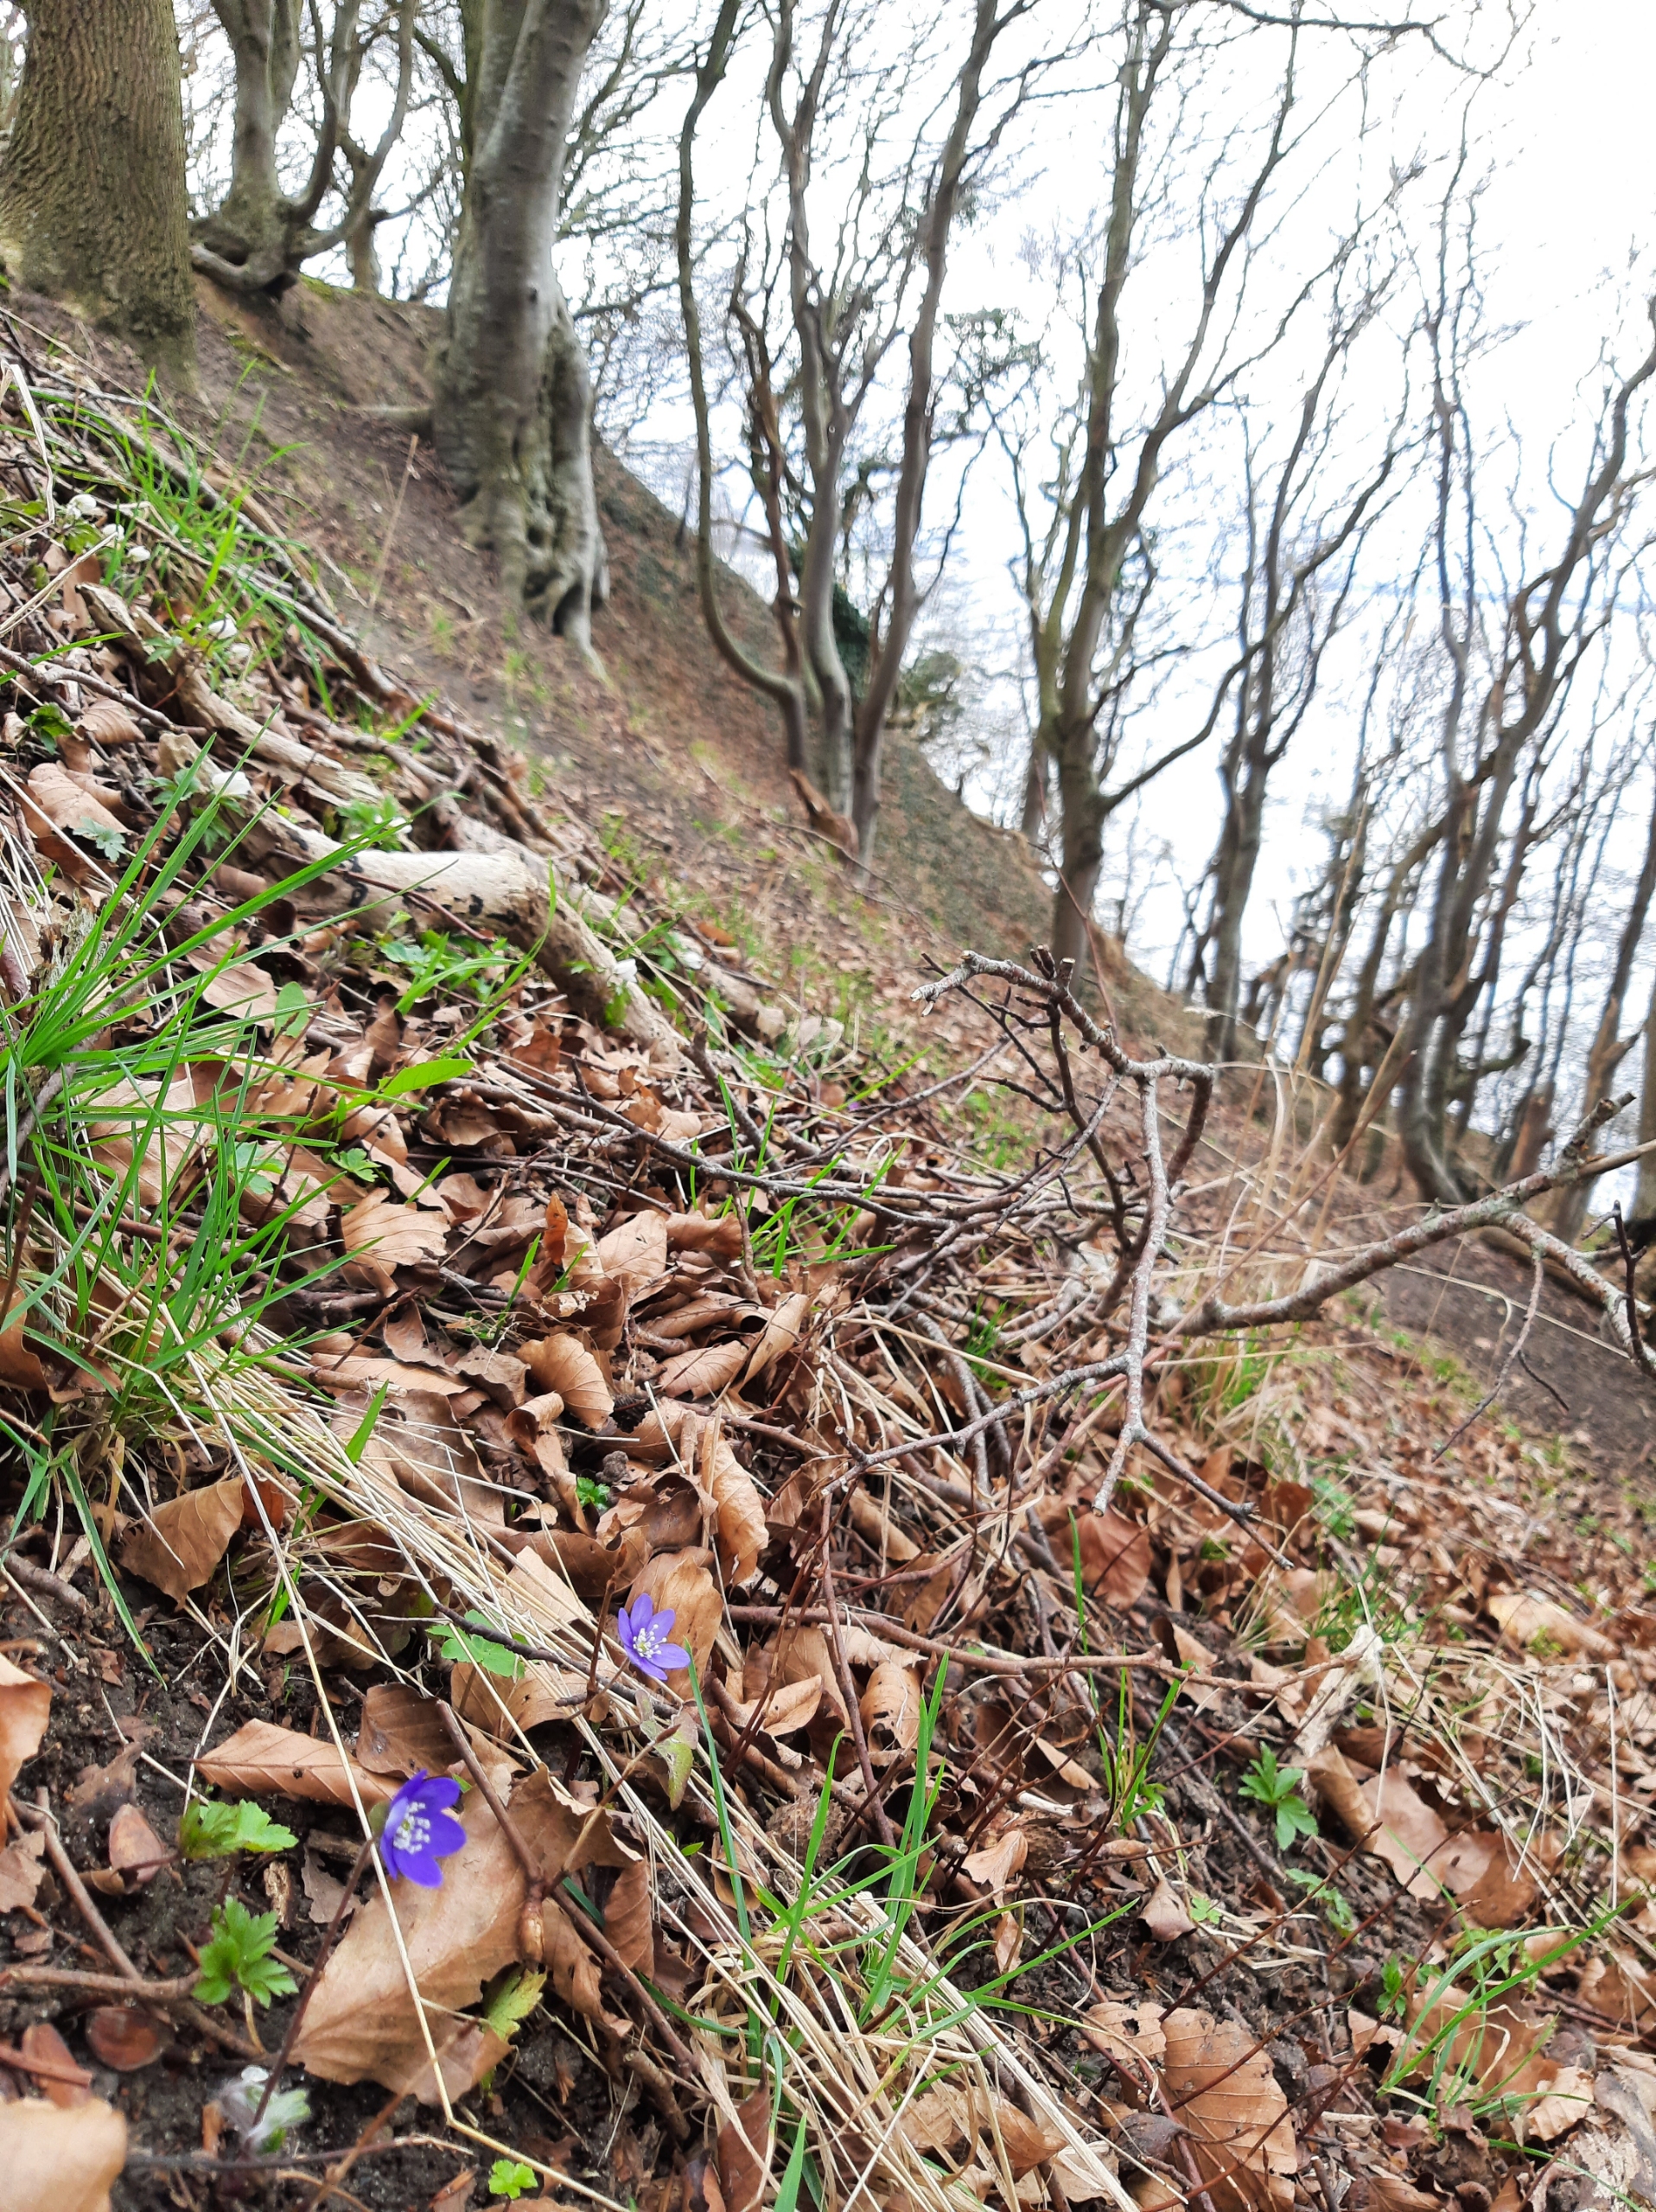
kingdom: Plantae
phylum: Tracheophyta
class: Magnoliopsida
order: Ranunculales
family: Ranunculaceae
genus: Hepatica
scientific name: Hepatica nobilis
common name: Blå anemone
